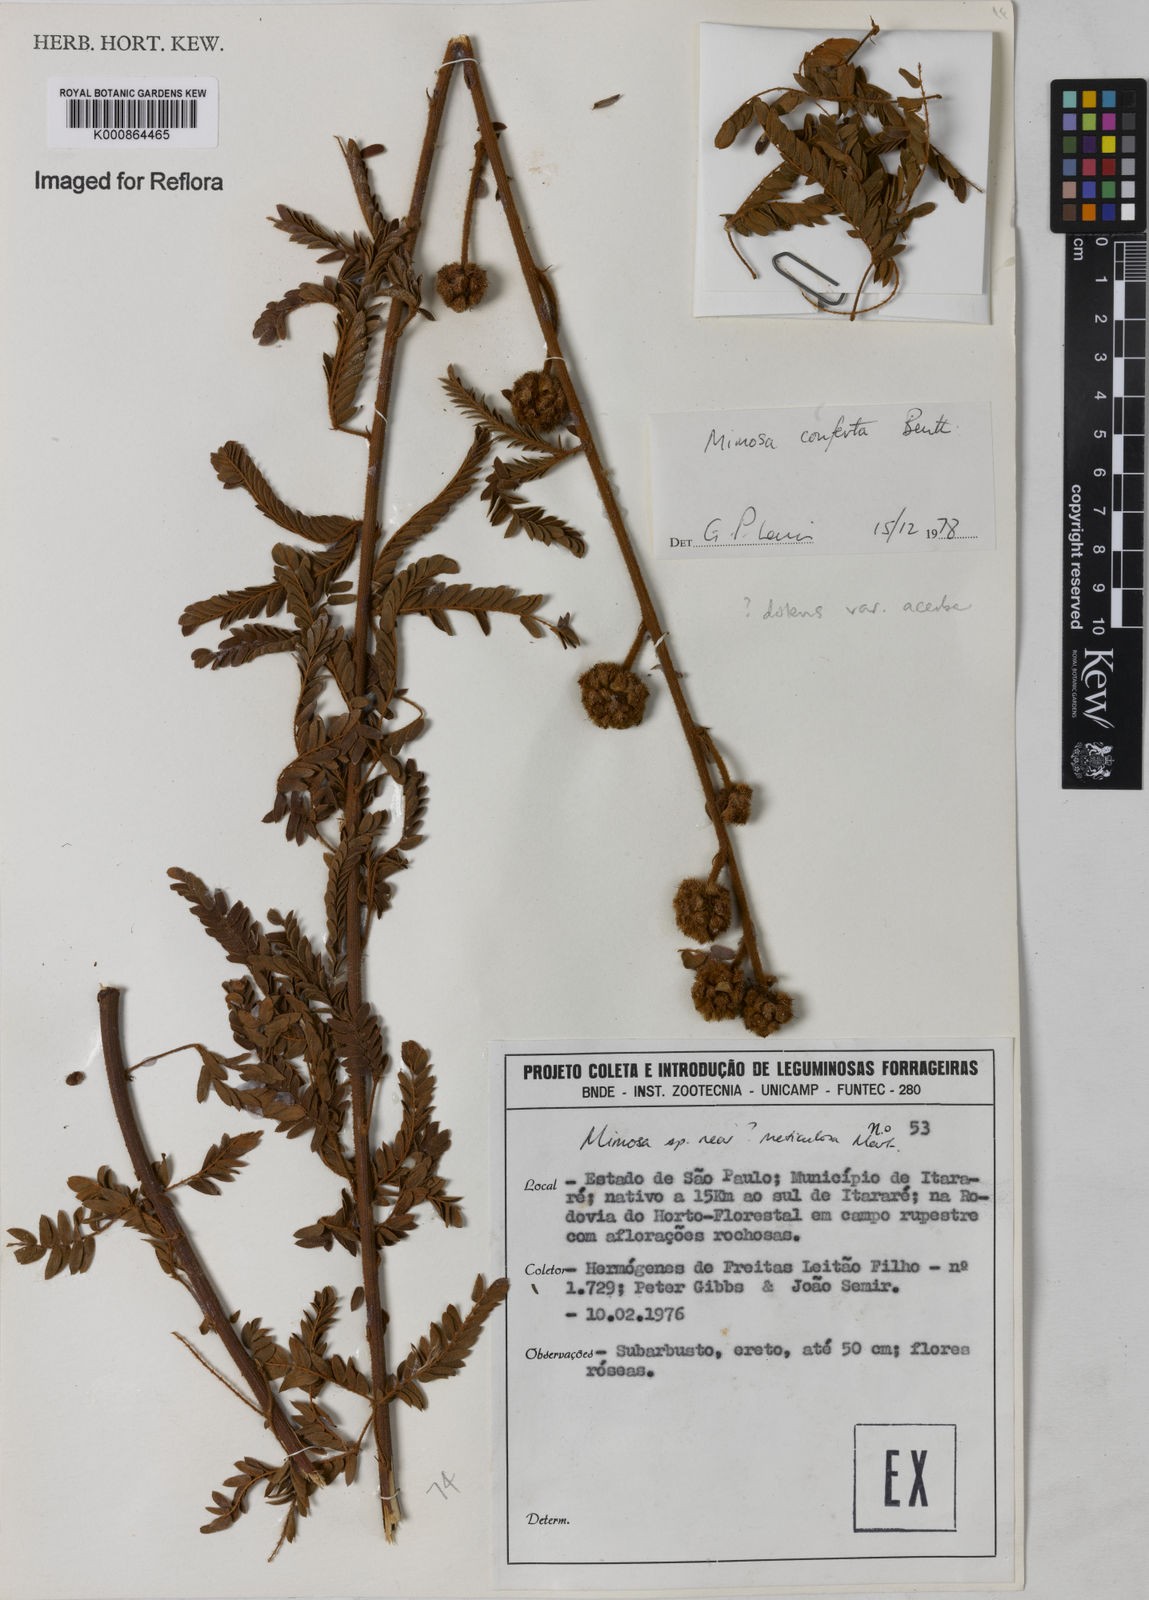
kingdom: Plantae
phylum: Tracheophyta
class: Magnoliopsida
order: Fabales
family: Fabaceae
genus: Mimosa
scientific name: Mimosa dolens
